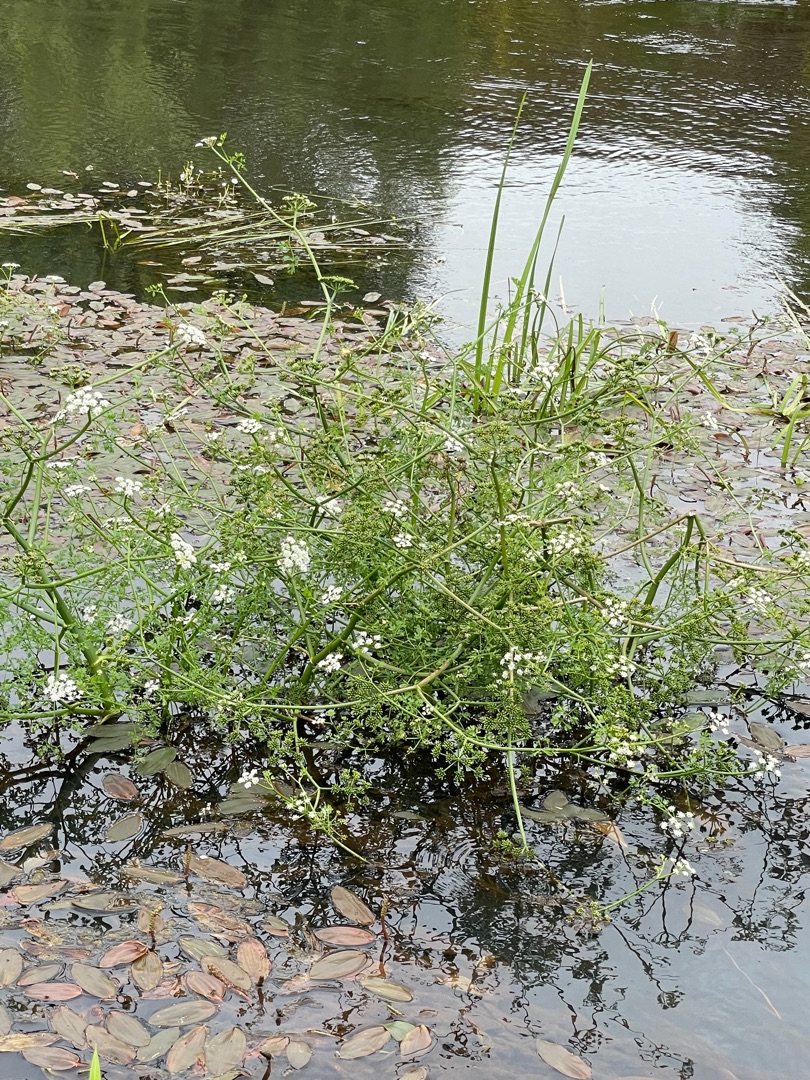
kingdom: Plantae
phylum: Tracheophyta
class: Magnoliopsida
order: Apiales
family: Apiaceae
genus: Oenanthe
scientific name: Oenanthe fluviatilis
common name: Flod-klaseskærm
